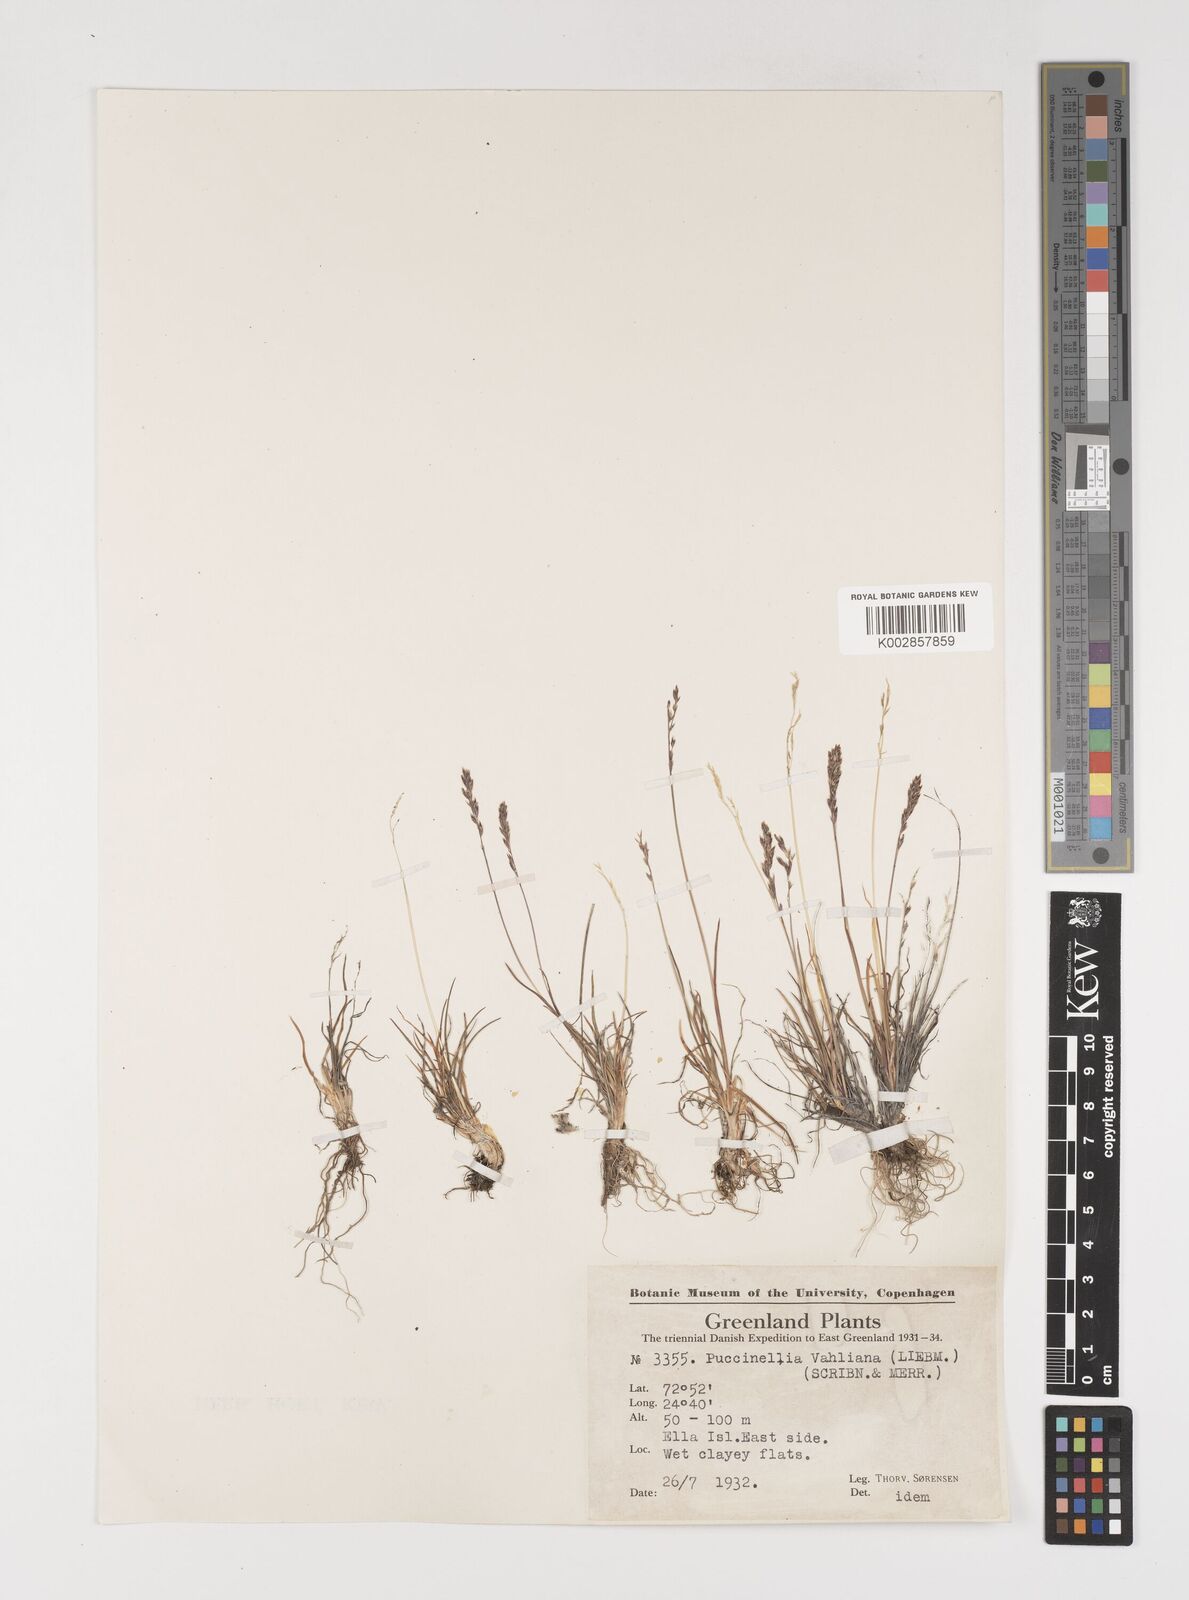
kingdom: Plantae
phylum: Tracheophyta
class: Liliopsida
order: Poales
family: Poaceae
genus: Puccinellia
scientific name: Puccinellia vahliana
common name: Vahl's alkaligrass
